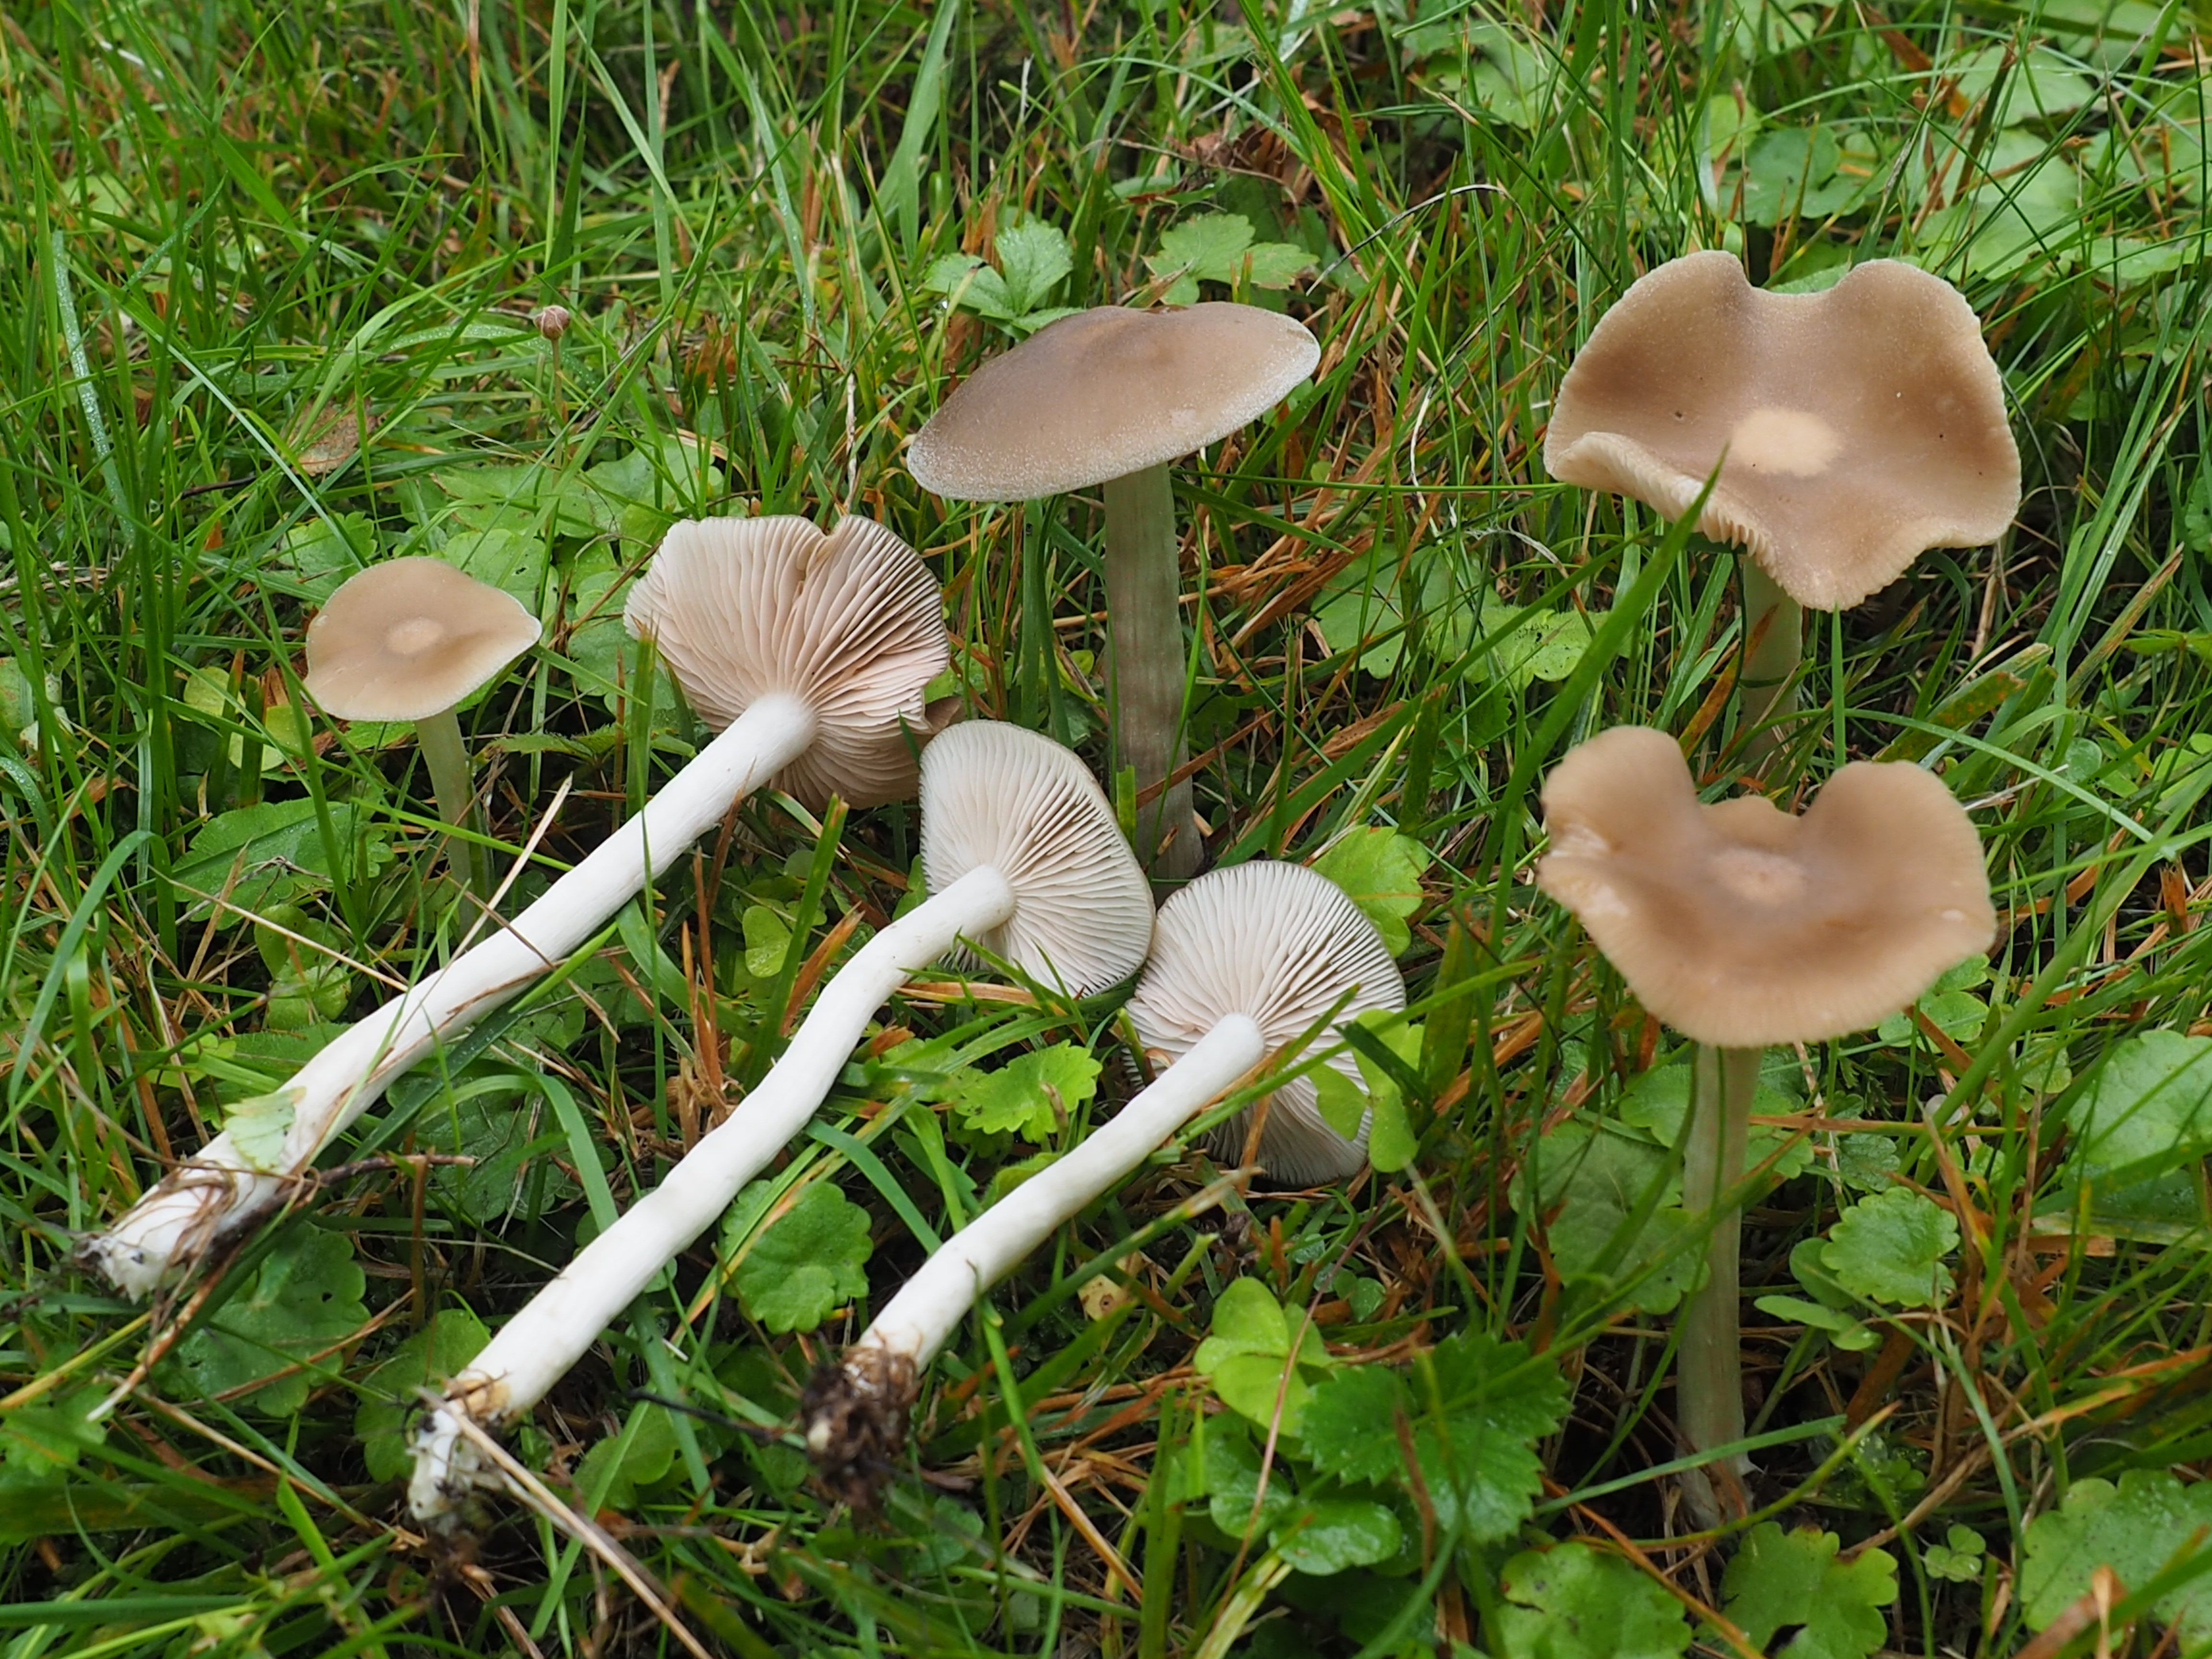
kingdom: Fungi
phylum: Basidiomycota
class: Agaricomycetes
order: Agaricales
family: Entolomataceae
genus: Entoloma
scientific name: Entoloma
